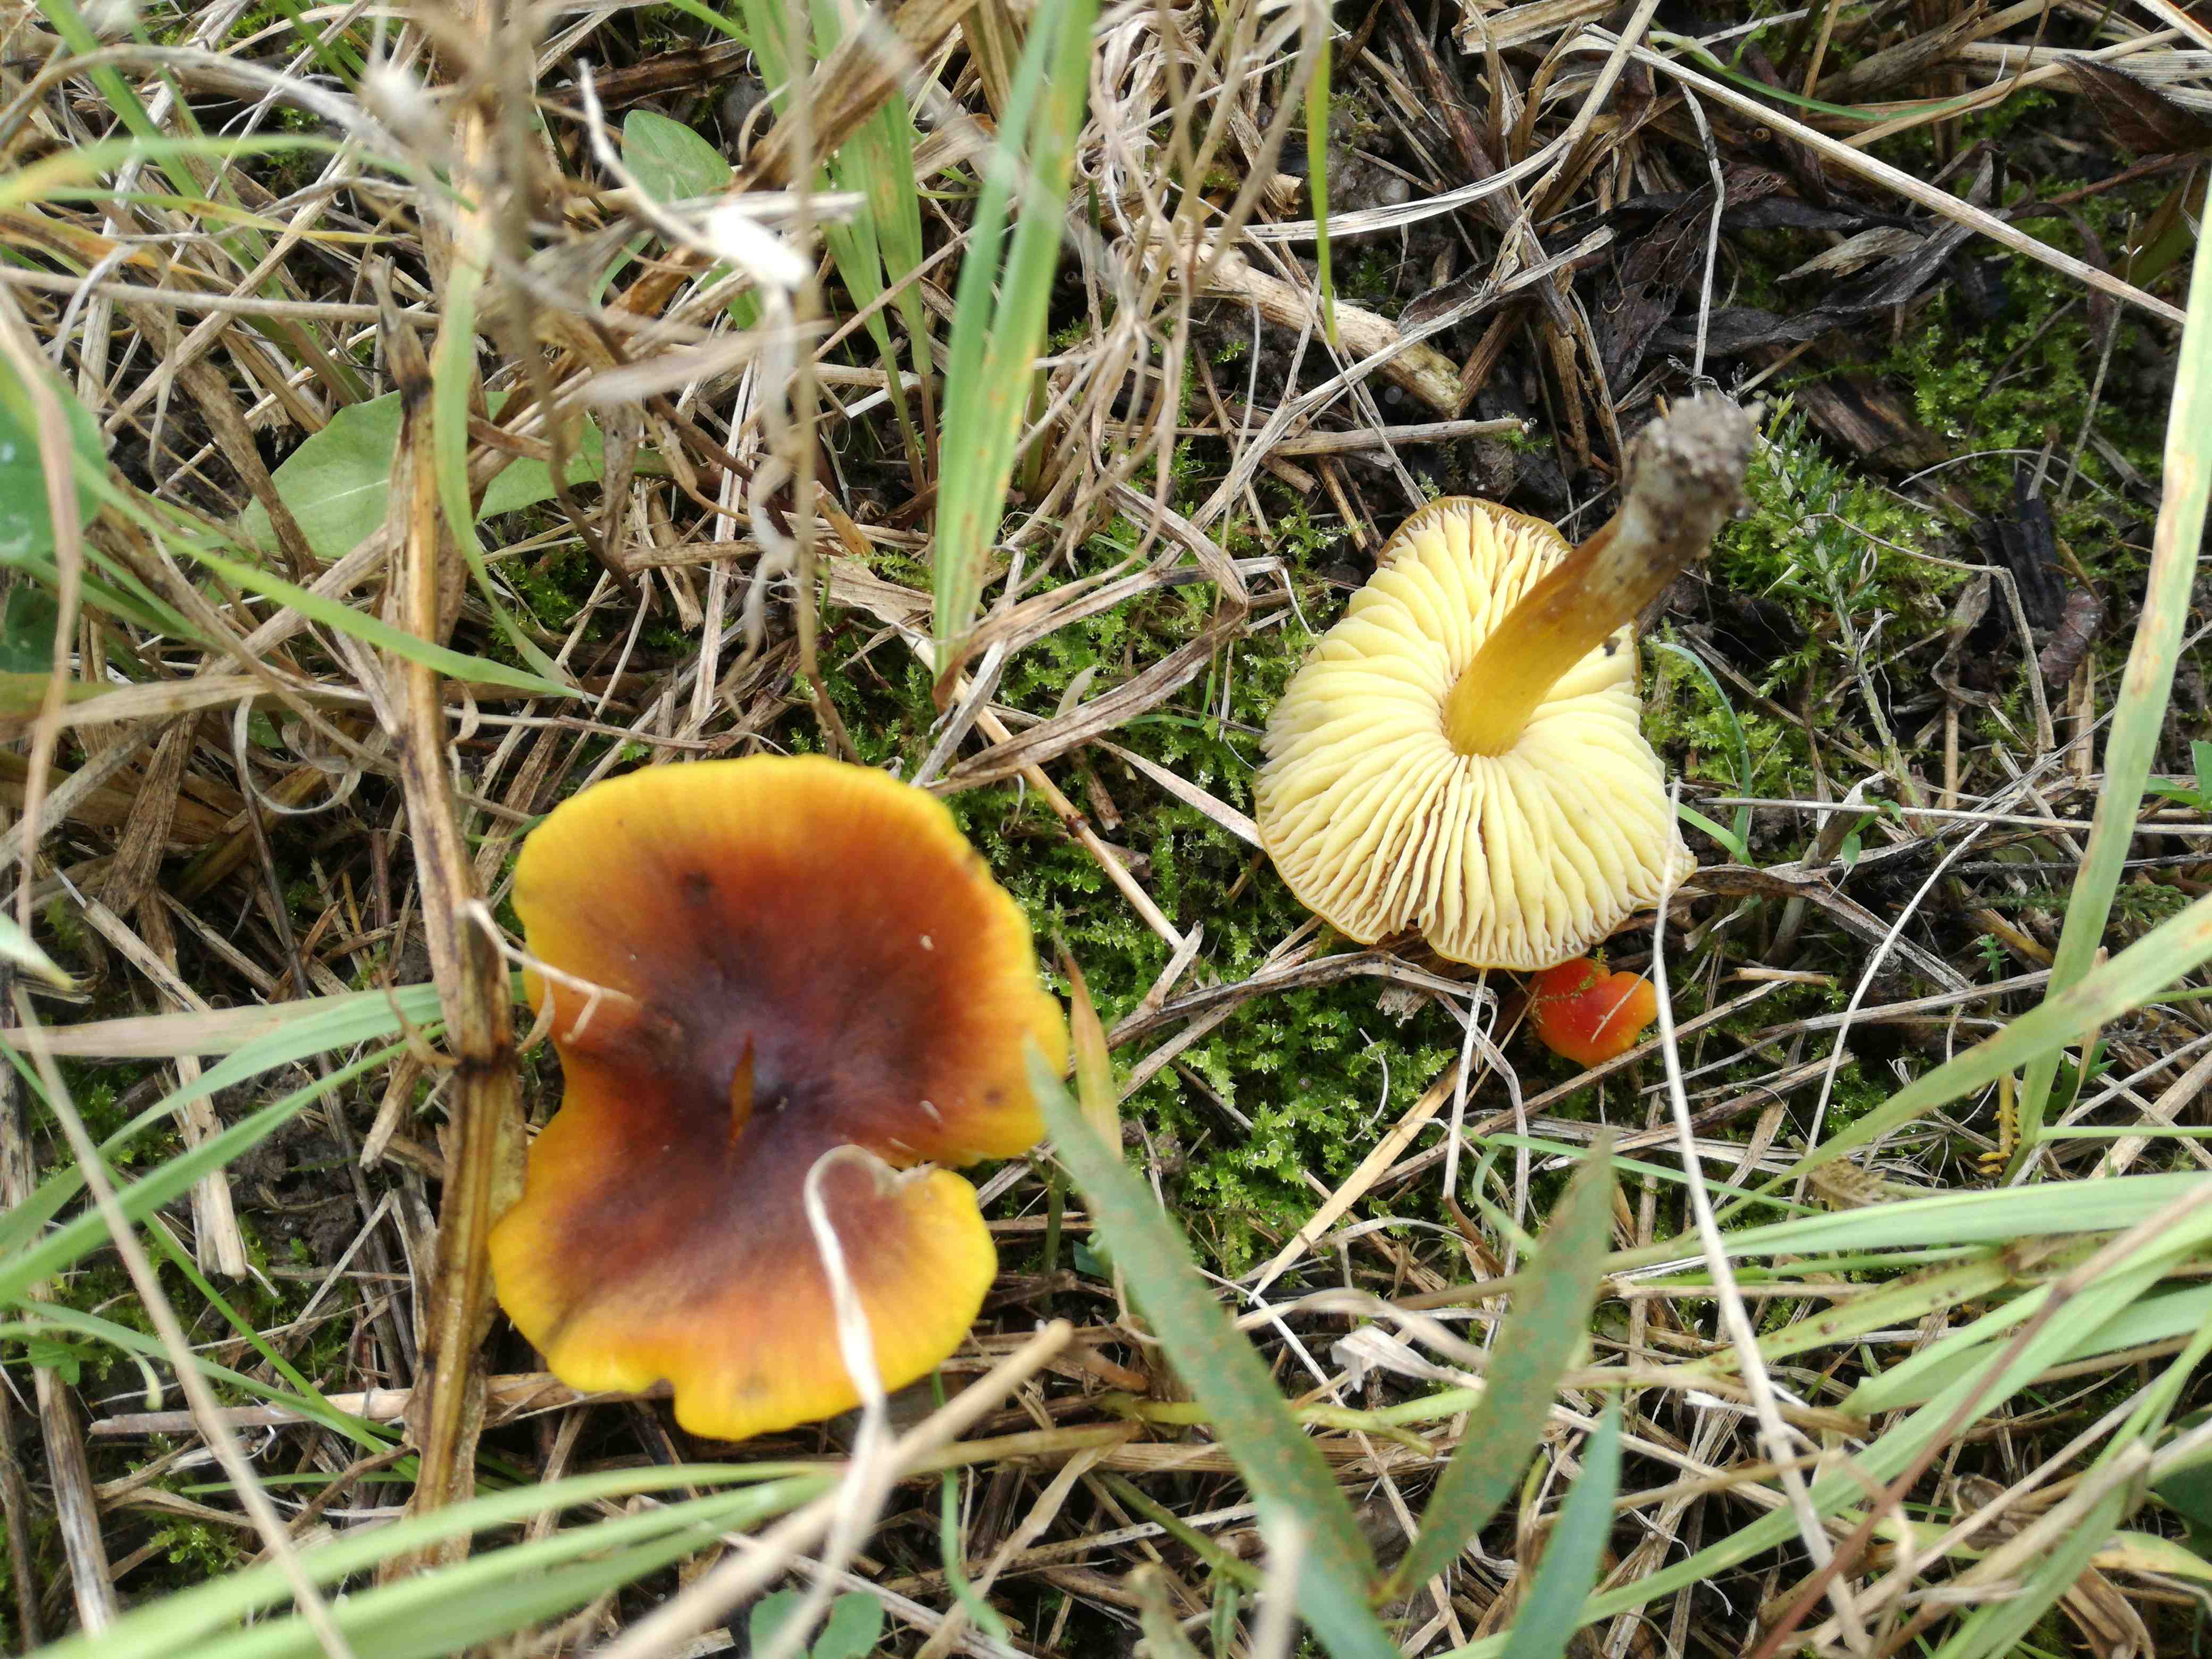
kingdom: Fungi
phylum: Basidiomycota
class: Agaricomycetes
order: Agaricales
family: Hygrophoraceae
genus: Hygrocybe
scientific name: Hygrocybe conica
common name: kegle-vokshat
